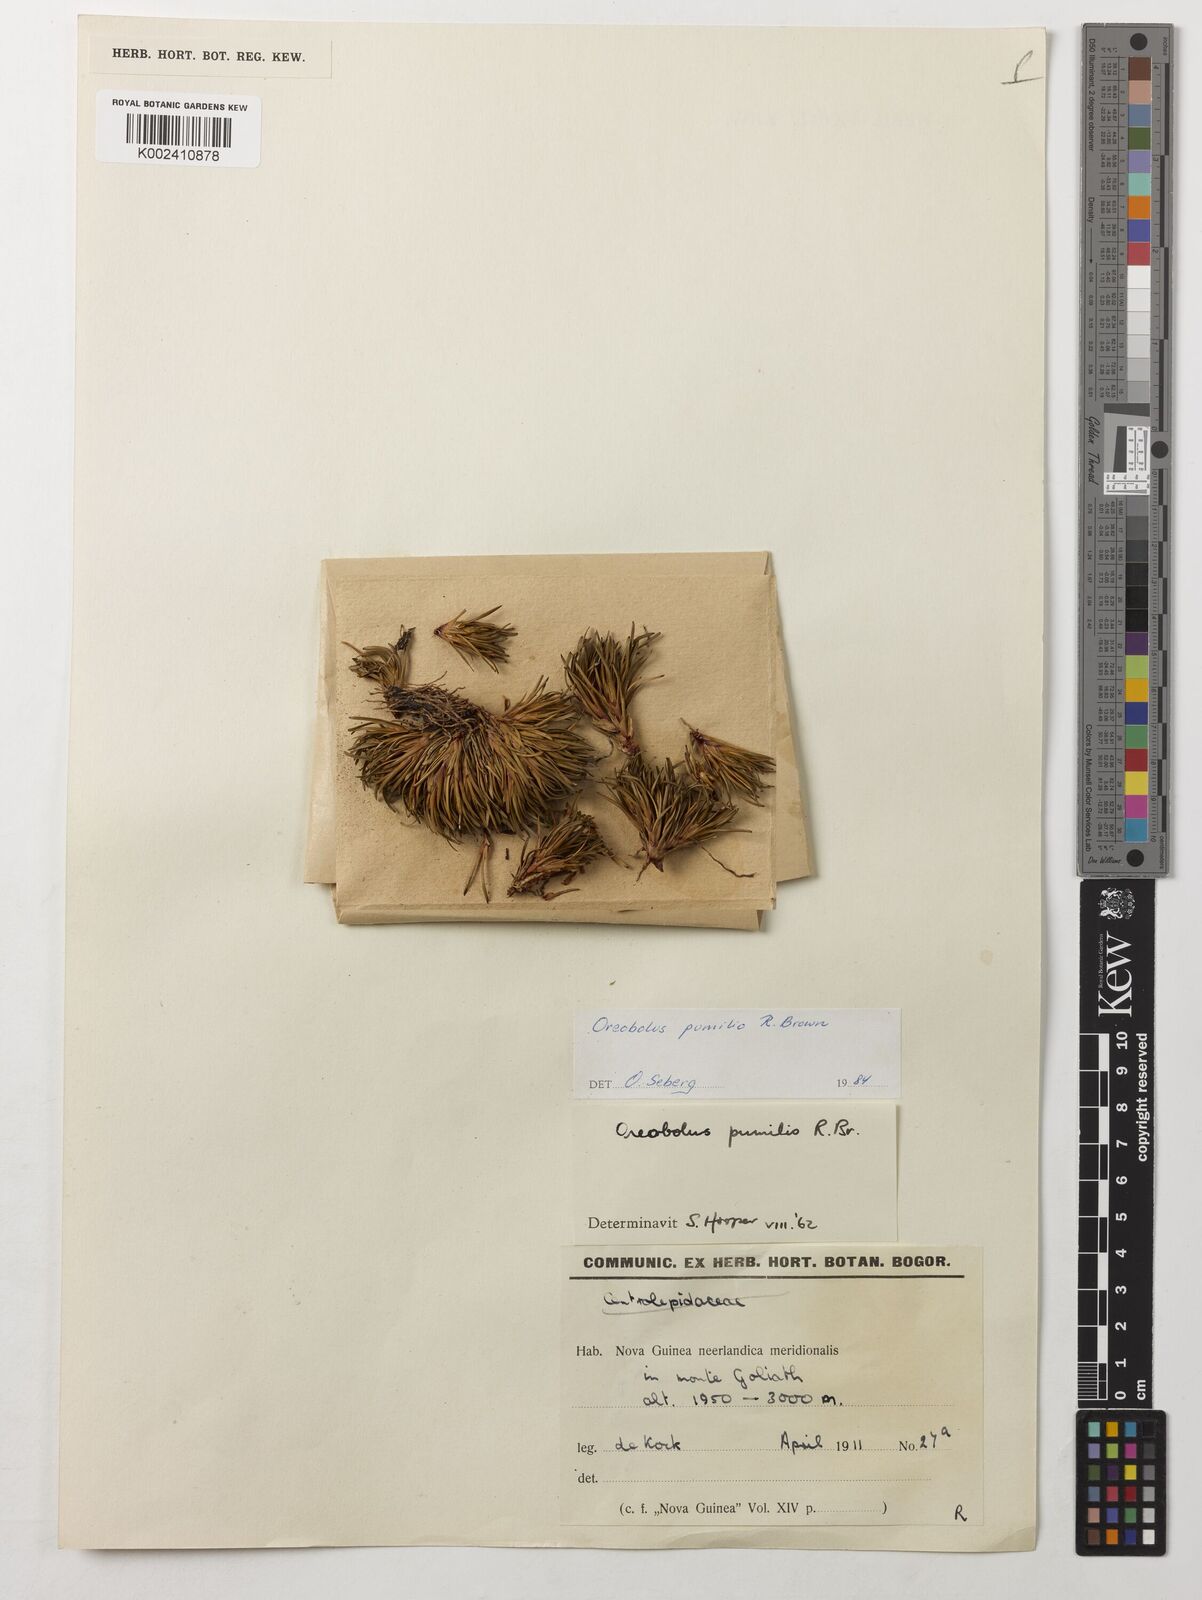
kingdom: Plantae
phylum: Tracheophyta
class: Liliopsida
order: Poales
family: Cyperaceae
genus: Oreobolus
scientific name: Oreobolus pumilio
